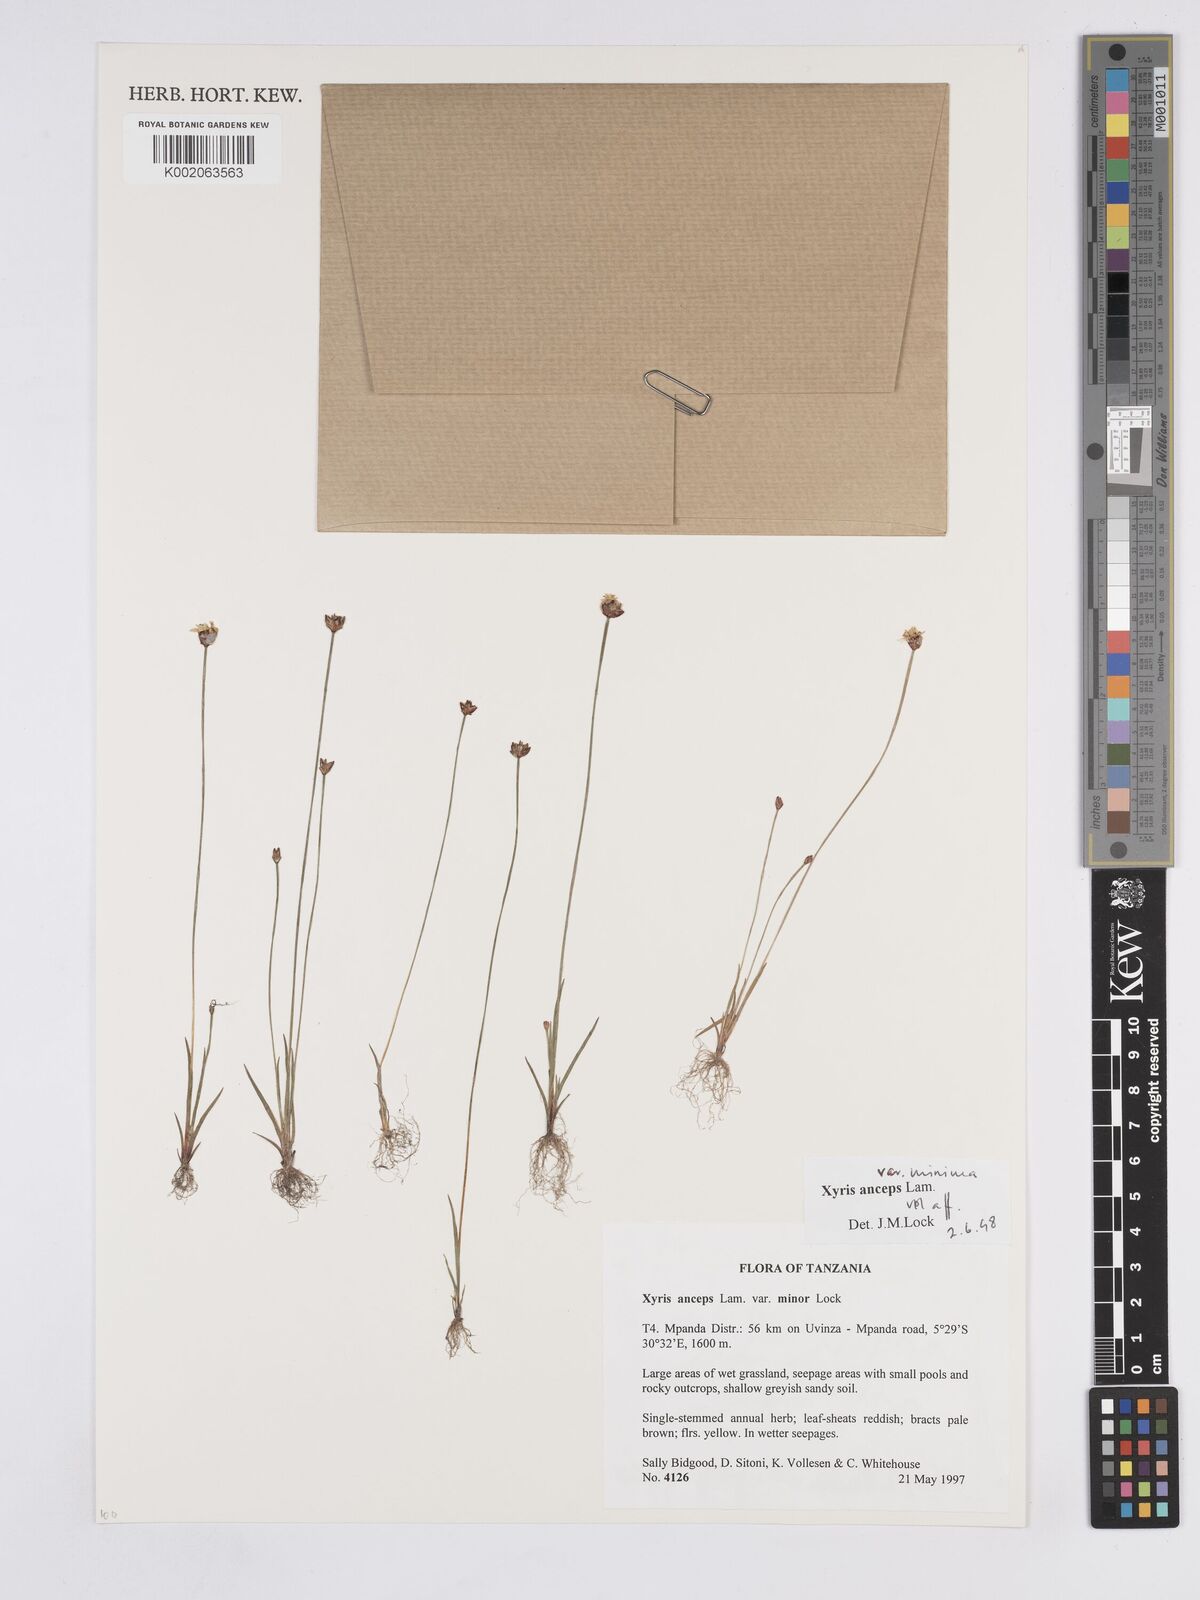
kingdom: Plantae
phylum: Tracheophyta
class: Liliopsida
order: Poales
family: Xyridaceae
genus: Xyris
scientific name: Xyris anceps
